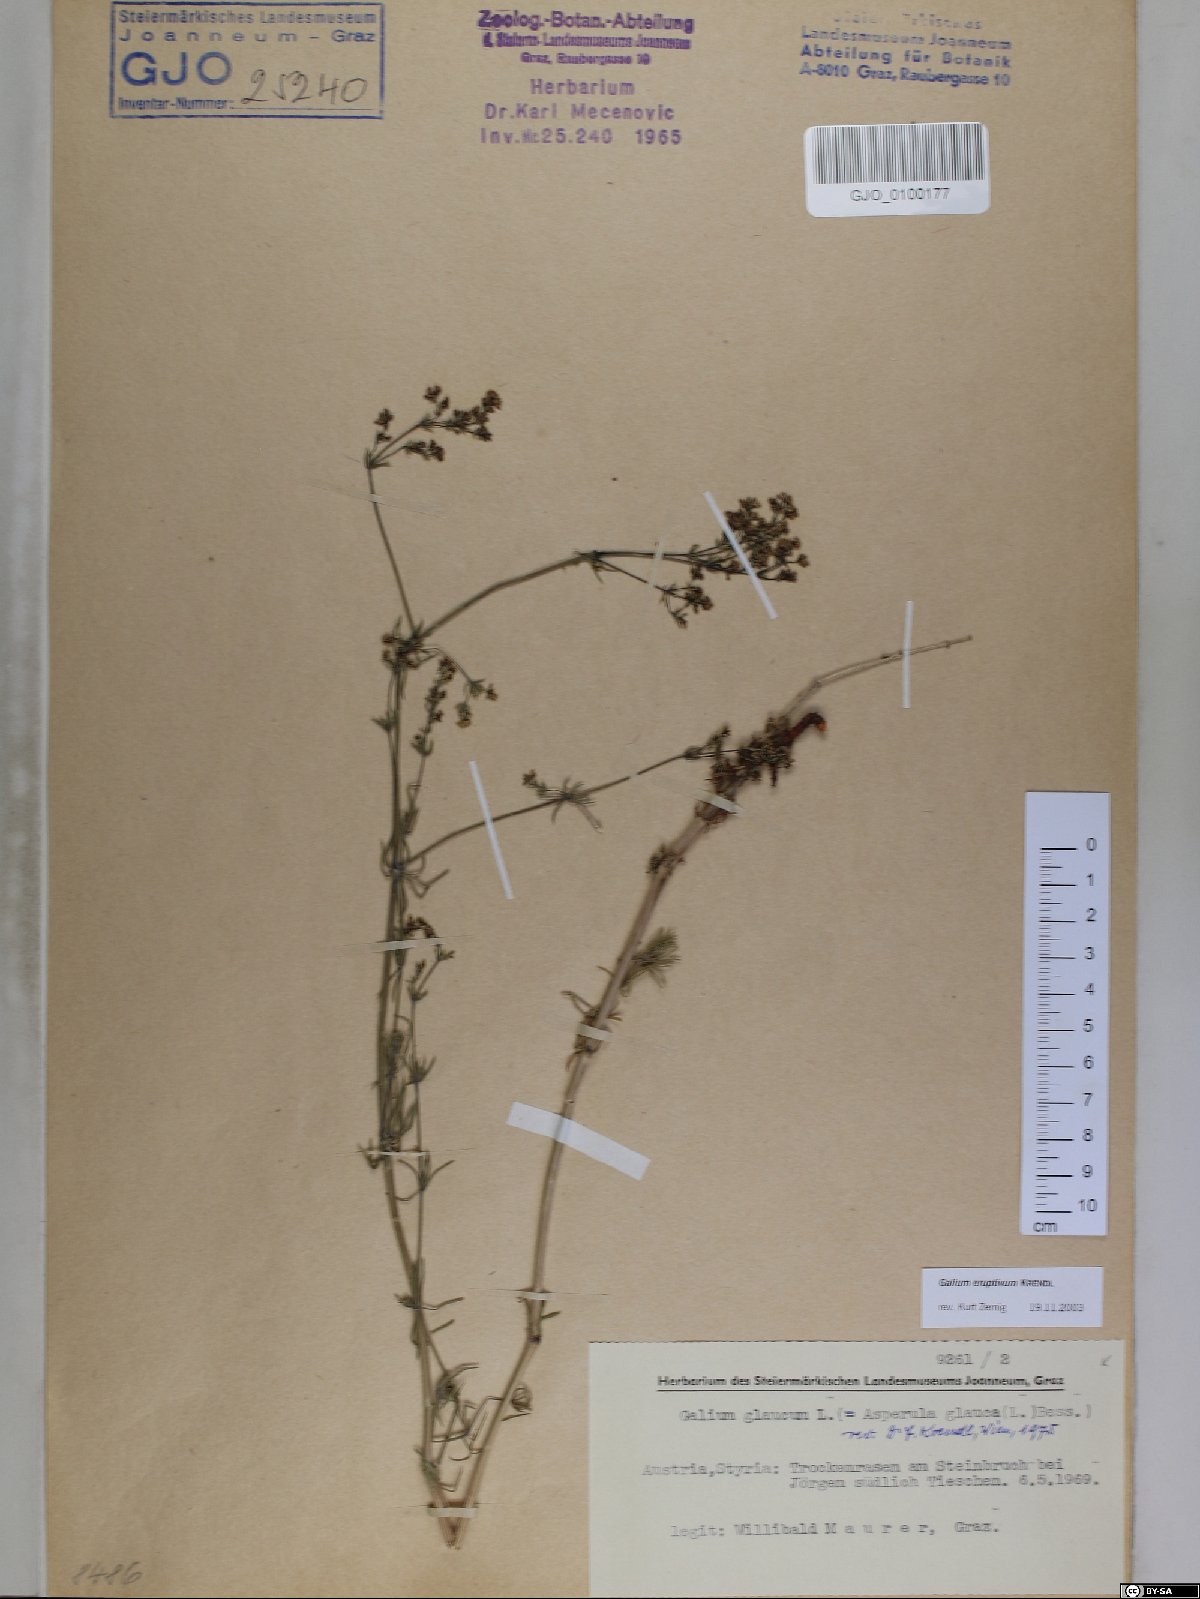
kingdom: Plantae
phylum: Tracheophyta
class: Magnoliopsida
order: Gentianales
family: Rubiaceae
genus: Galium
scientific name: Galium eruptivum
